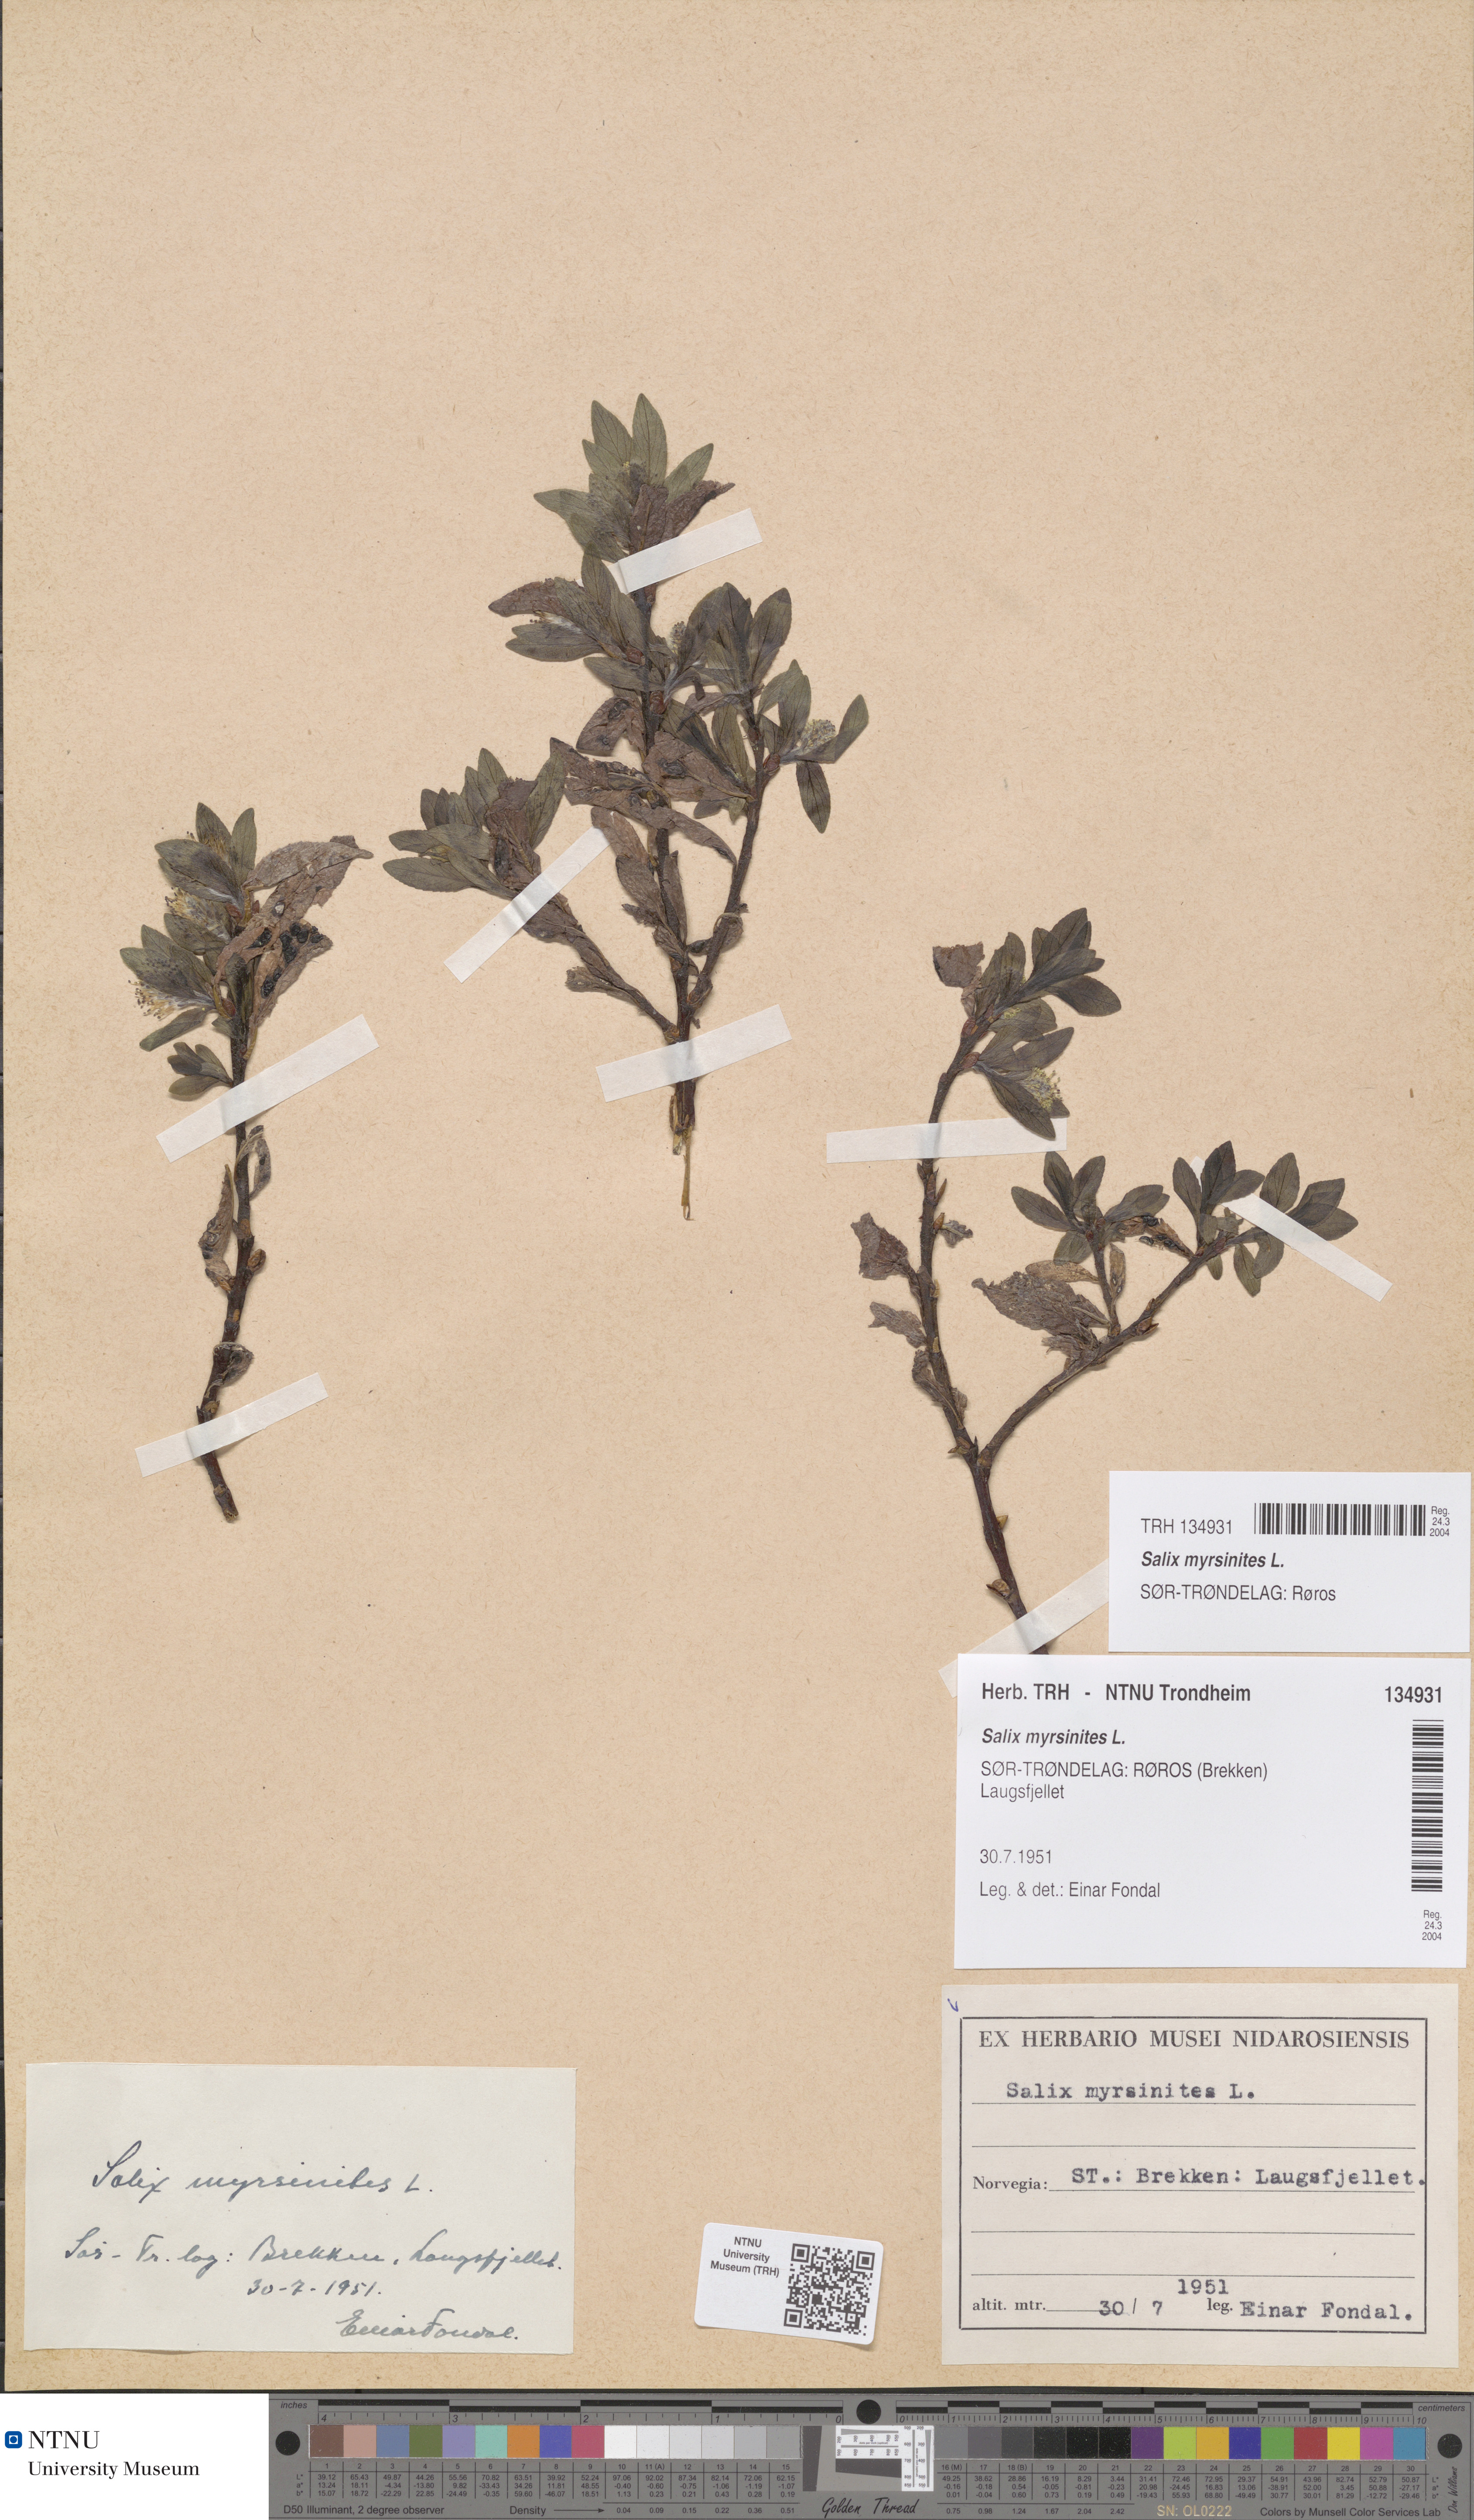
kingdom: Plantae
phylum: Tracheophyta
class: Magnoliopsida
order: Malpighiales
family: Salicaceae
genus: Salix
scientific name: Salix myrsinites
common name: Myrtle willow
